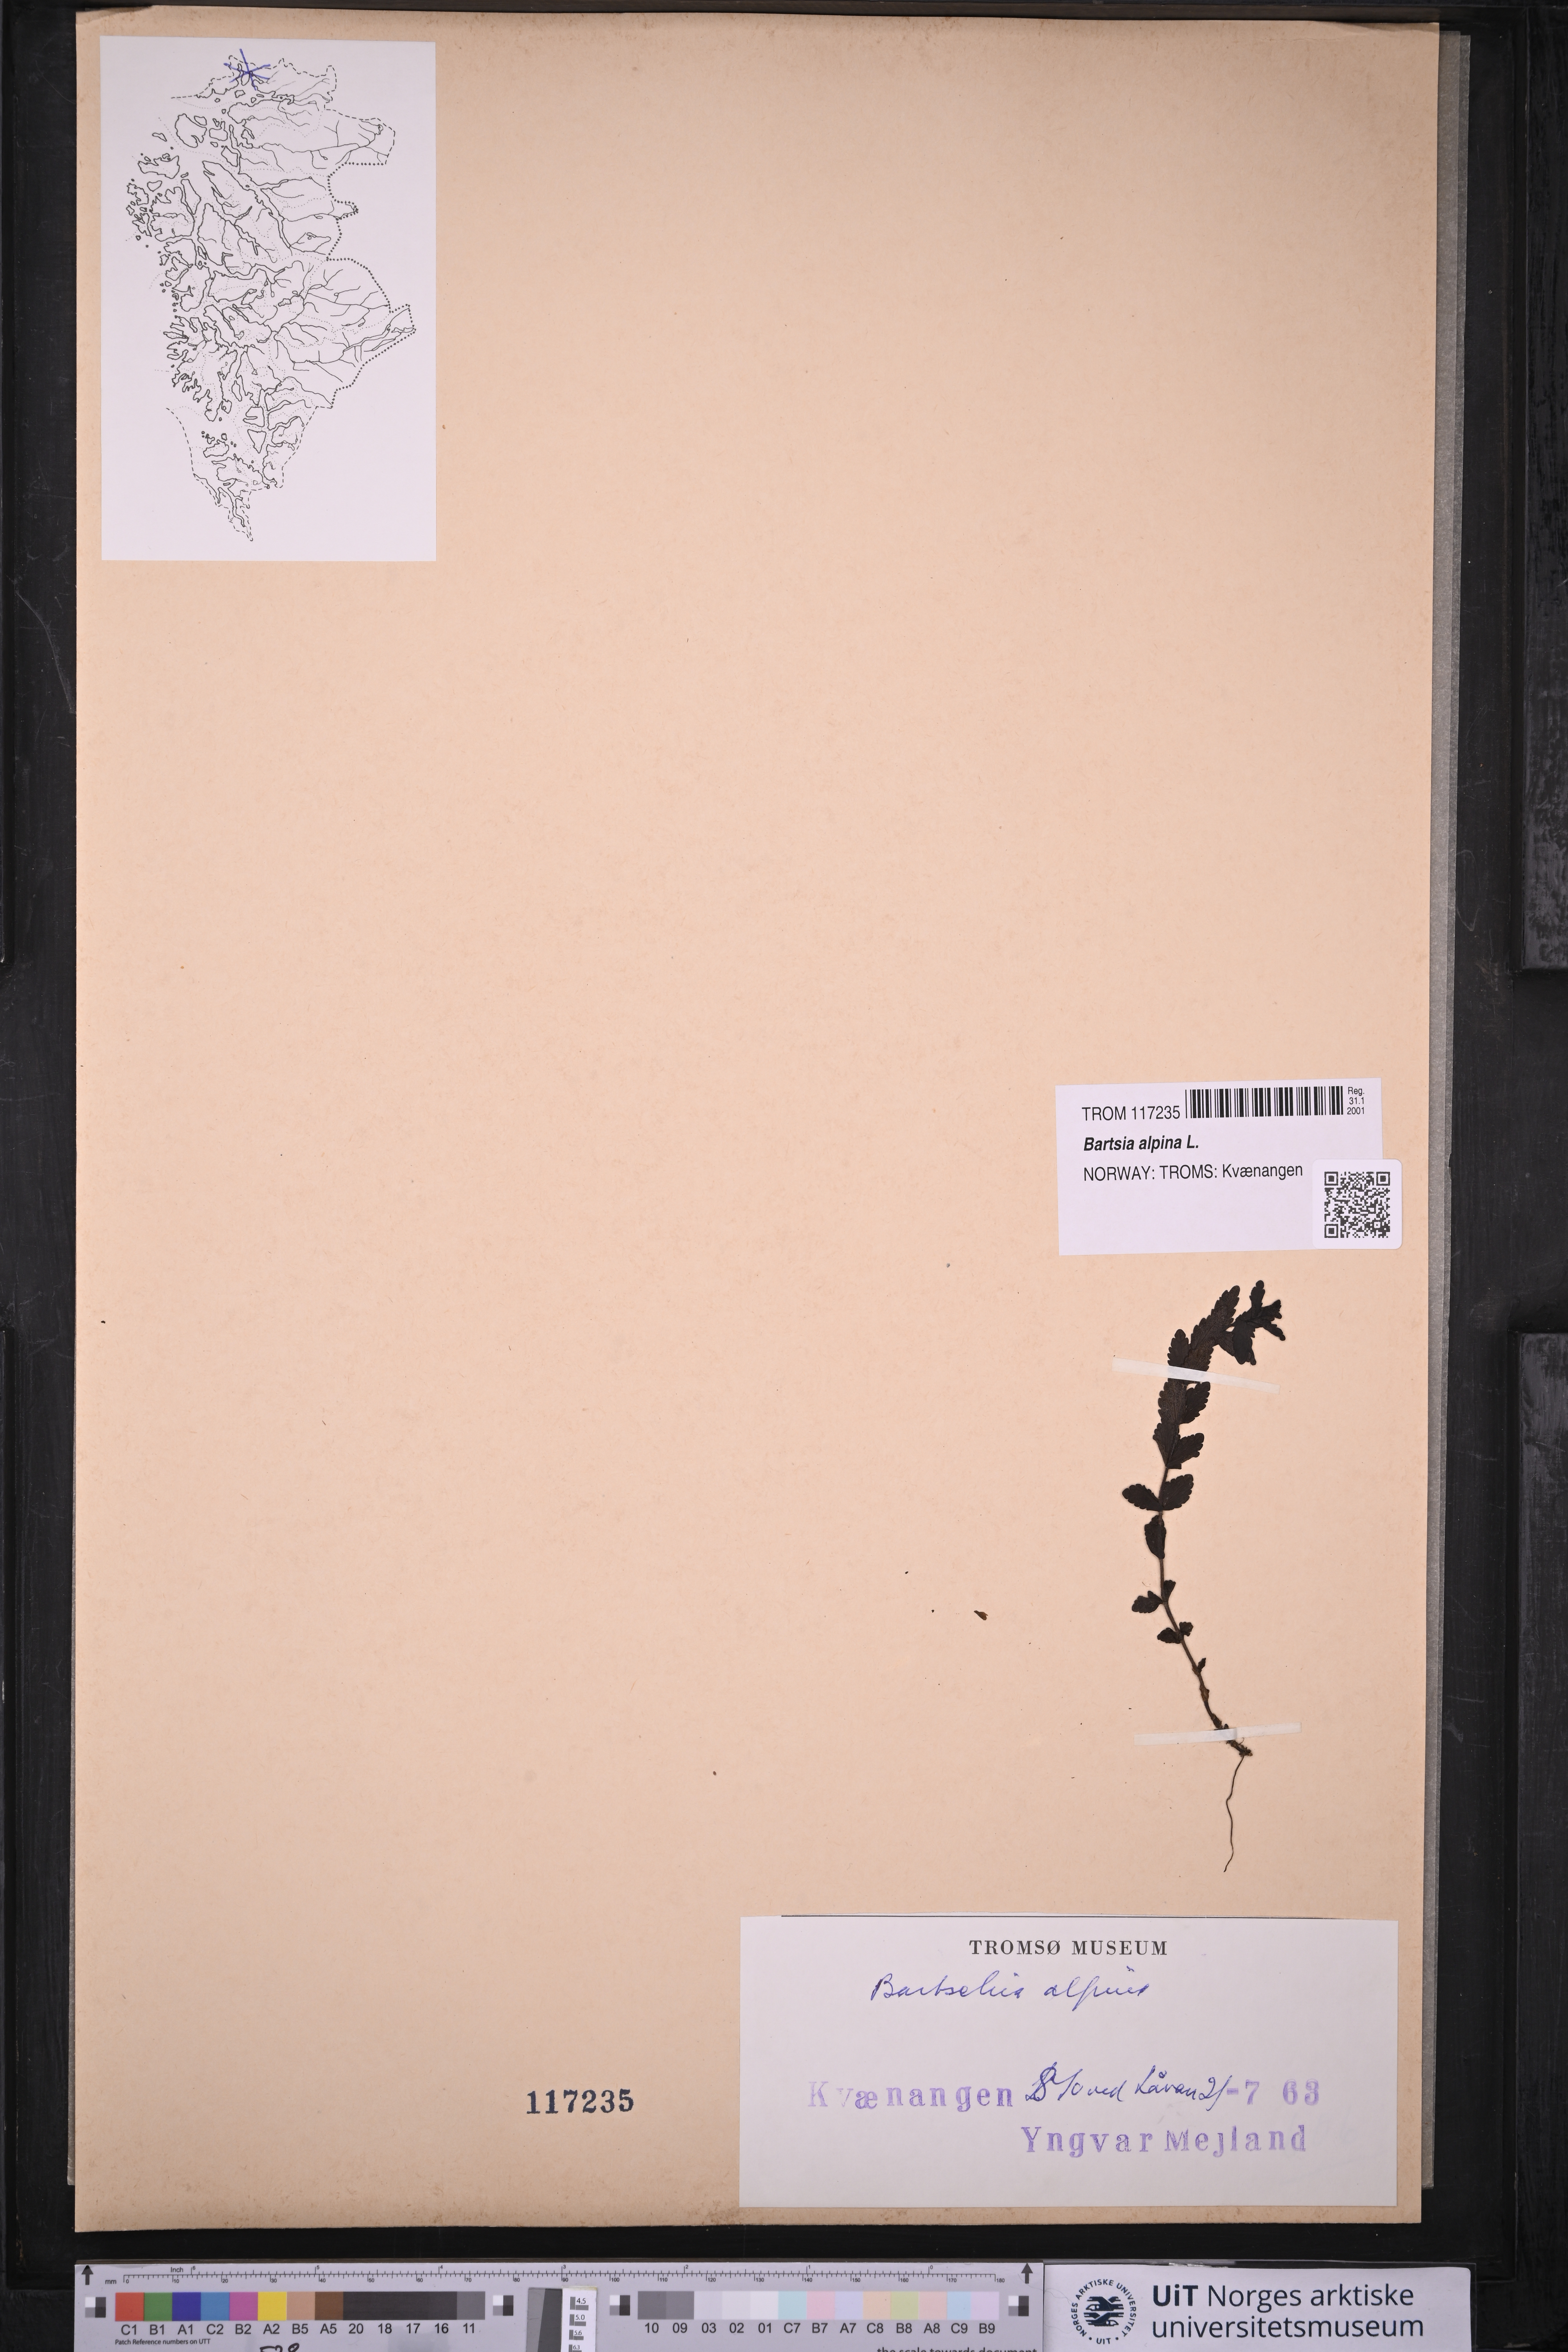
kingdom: Plantae
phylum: Tracheophyta
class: Magnoliopsida
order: Lamiales
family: Orobanchaceae
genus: Bartsia
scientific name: Bartsia alpina
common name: Alpine bartsia
